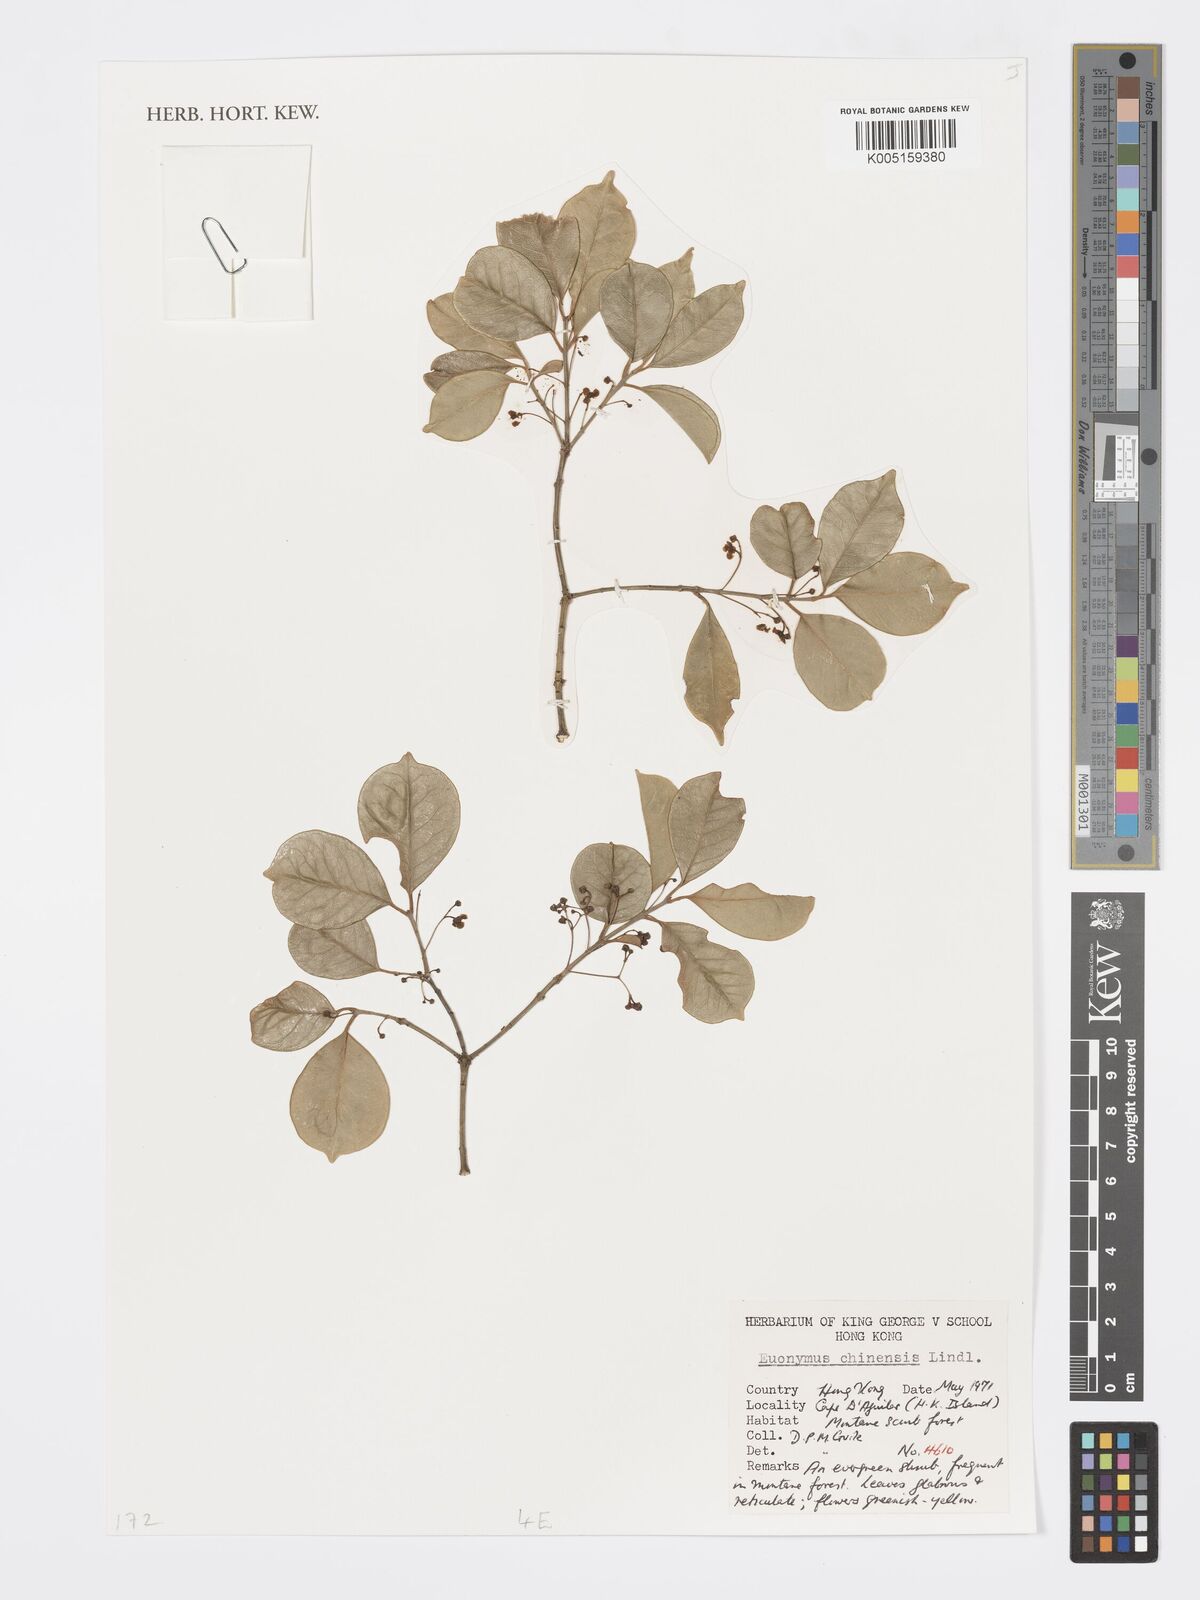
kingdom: Plantae
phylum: Tracheophyta
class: Magnoliopsida
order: Celastrales
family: Celastraceae
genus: Euonymus
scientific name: Euonymus nitidus
